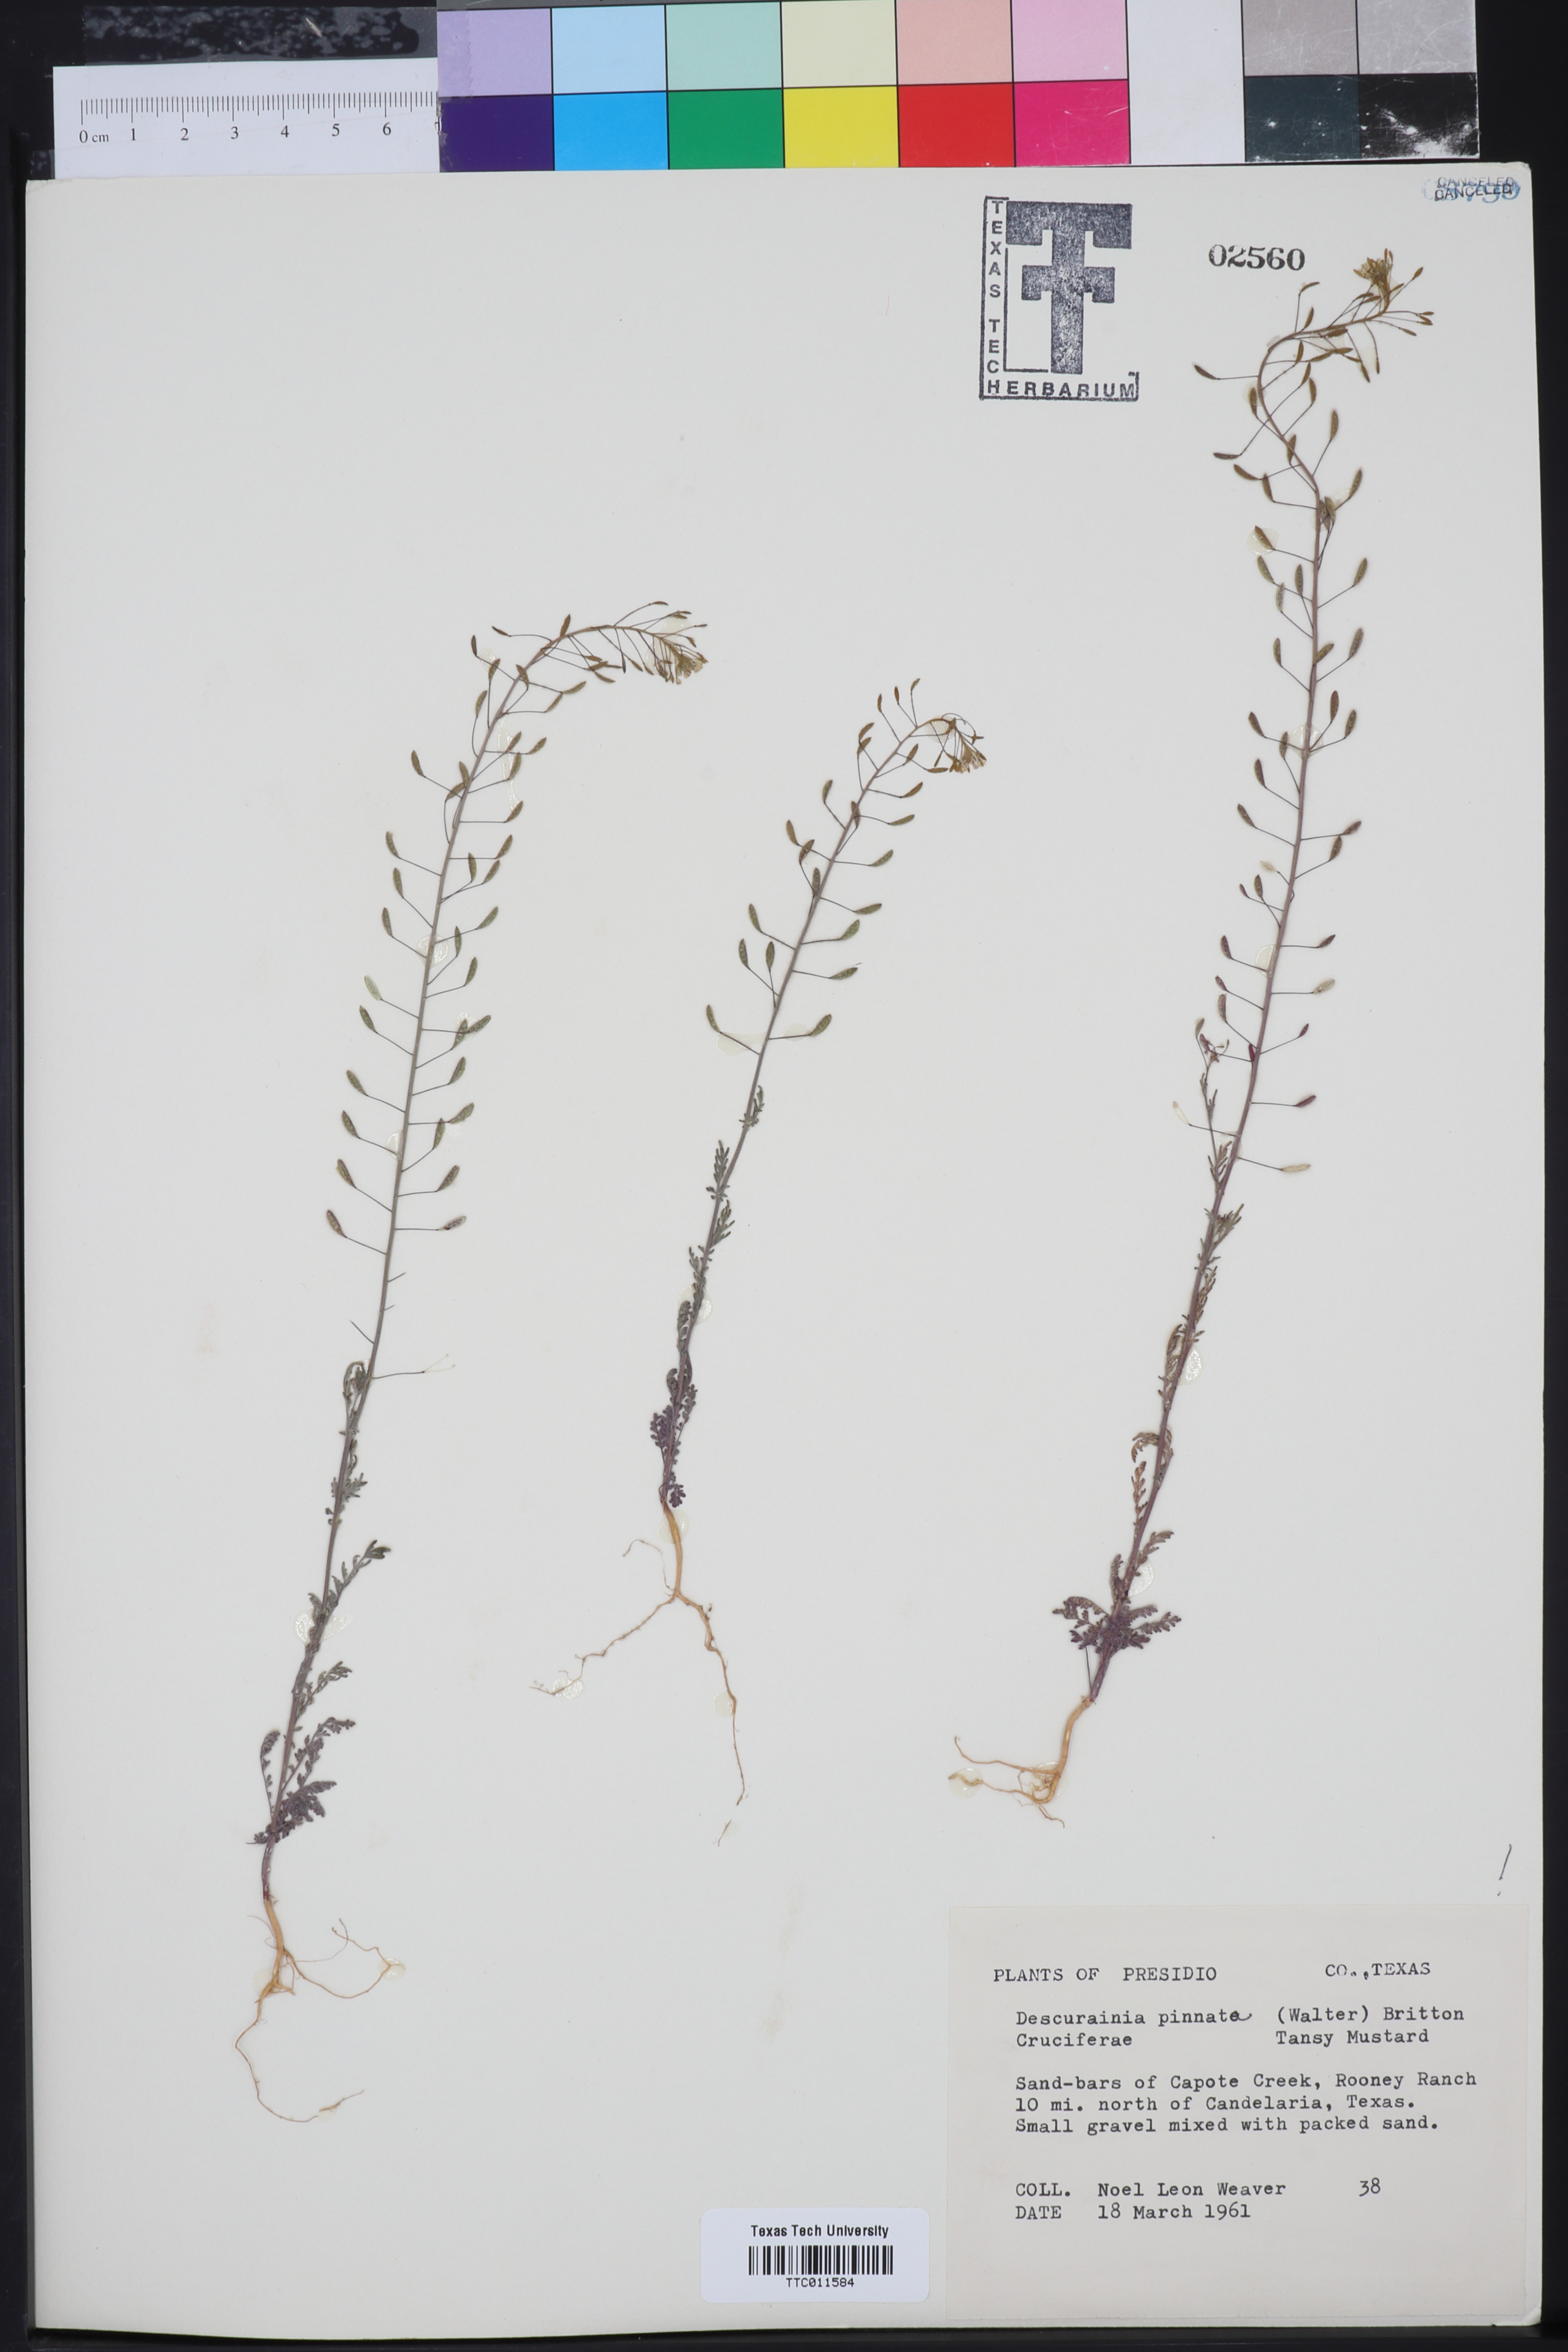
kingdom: Plantae
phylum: Tracheophyta
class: Magnoliopsida
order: Brassicales
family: Brassicaceae
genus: Descurainia
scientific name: Descurainia pinnata
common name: Western tansy mustard
